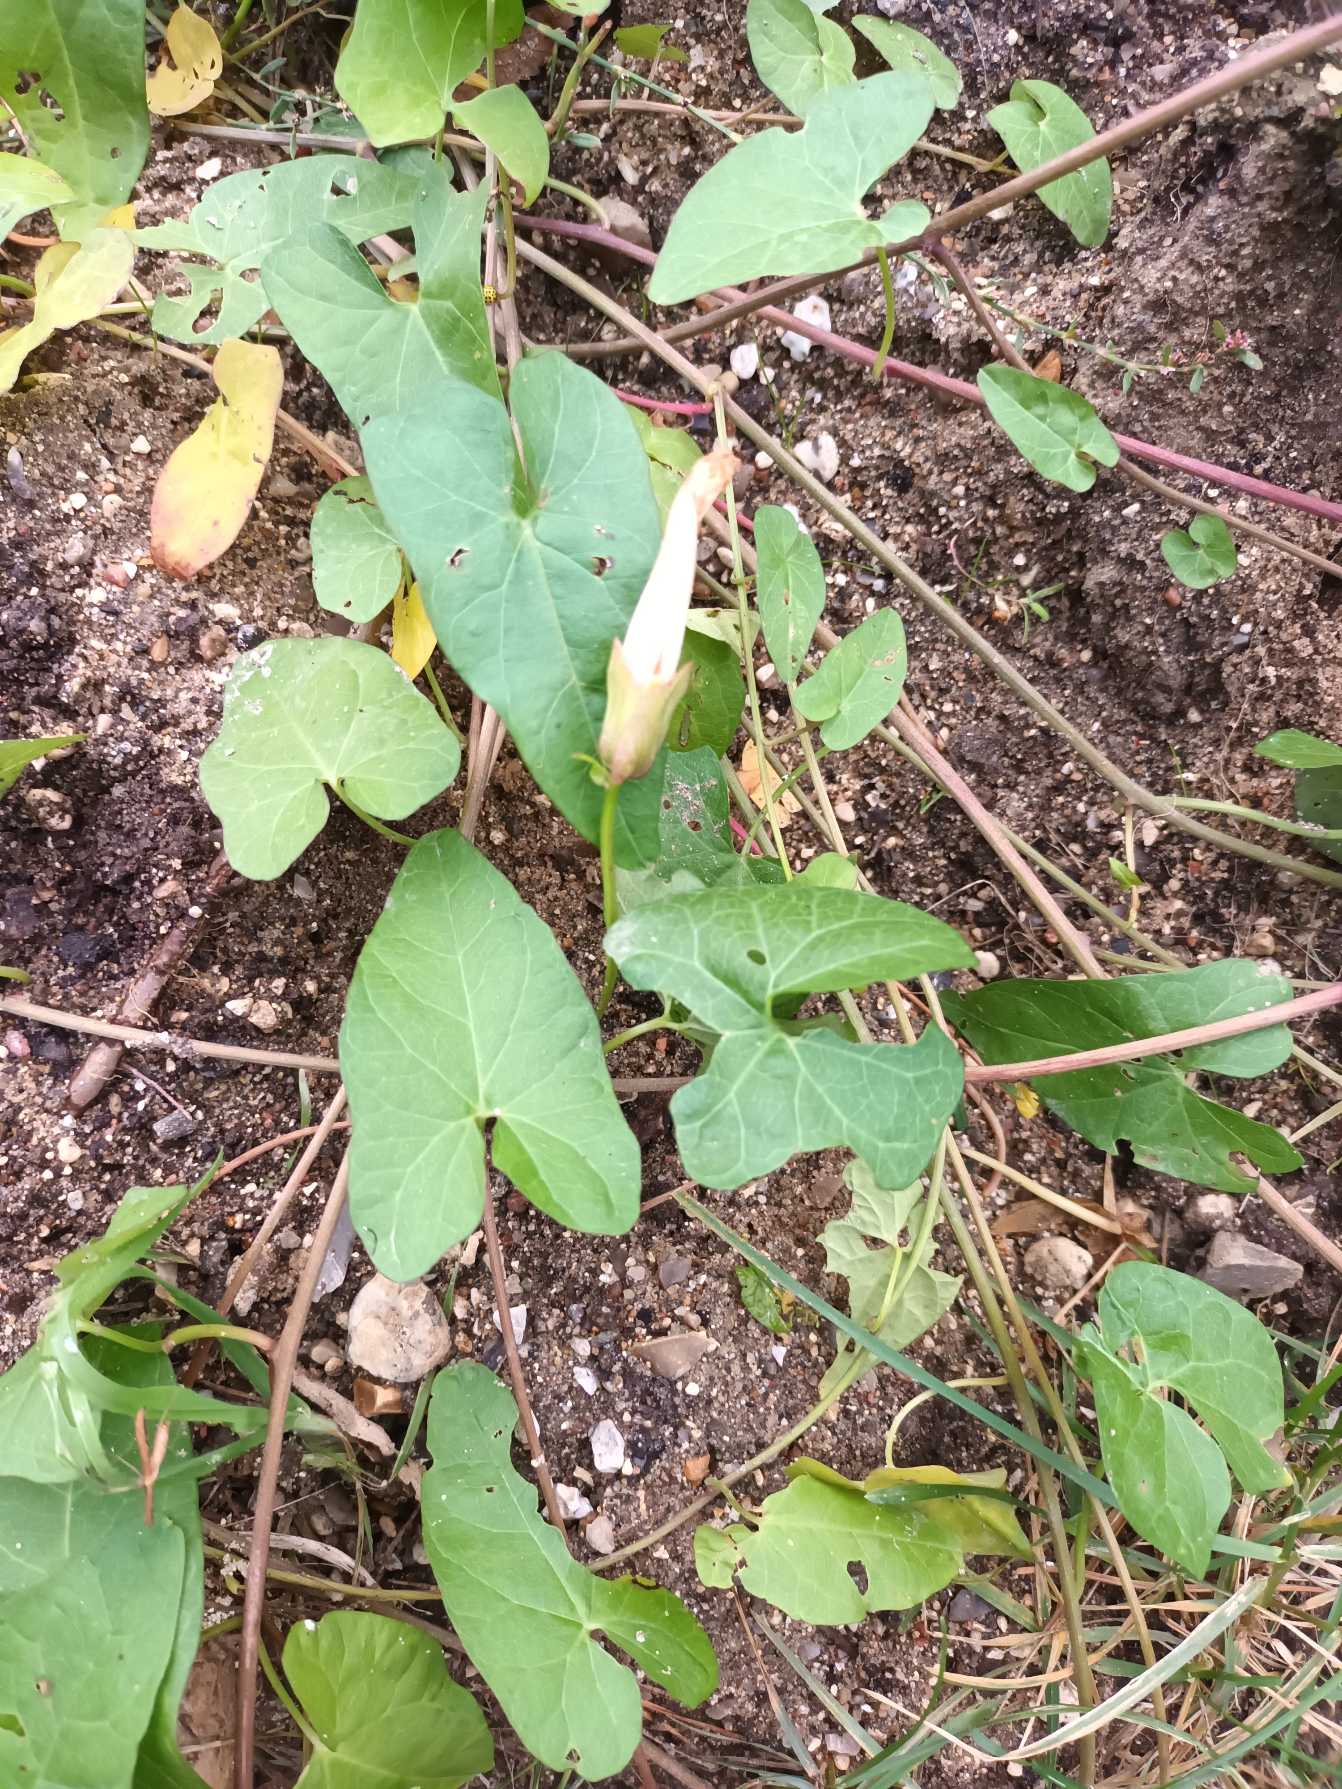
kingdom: Plantae
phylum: Tracheophyta
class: Magnoliopsida
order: Solanales
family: Convolvulaceae
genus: Calystegia
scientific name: Calystegia sepium
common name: Gærde-snerle
